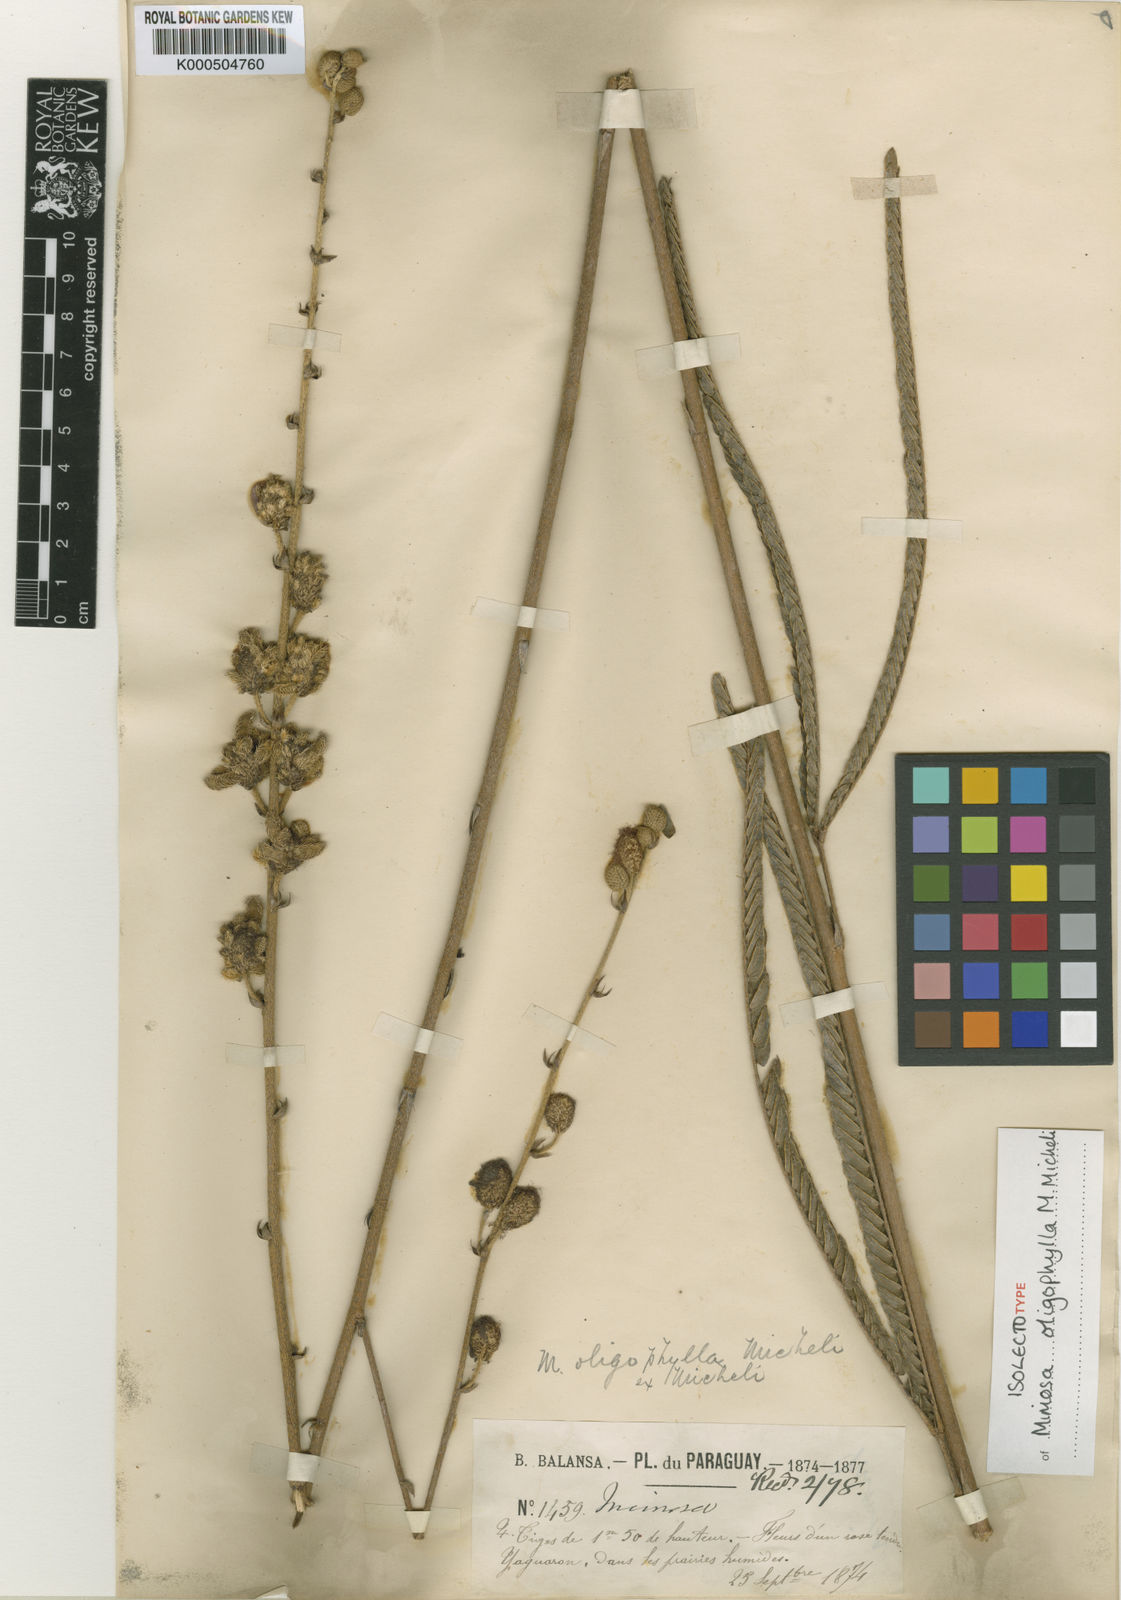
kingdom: Plantae
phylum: Tracheophyta
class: Magnoliopsida
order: Fabales
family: Fabaceae
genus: Mimosa
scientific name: Mimosa oligophylla
